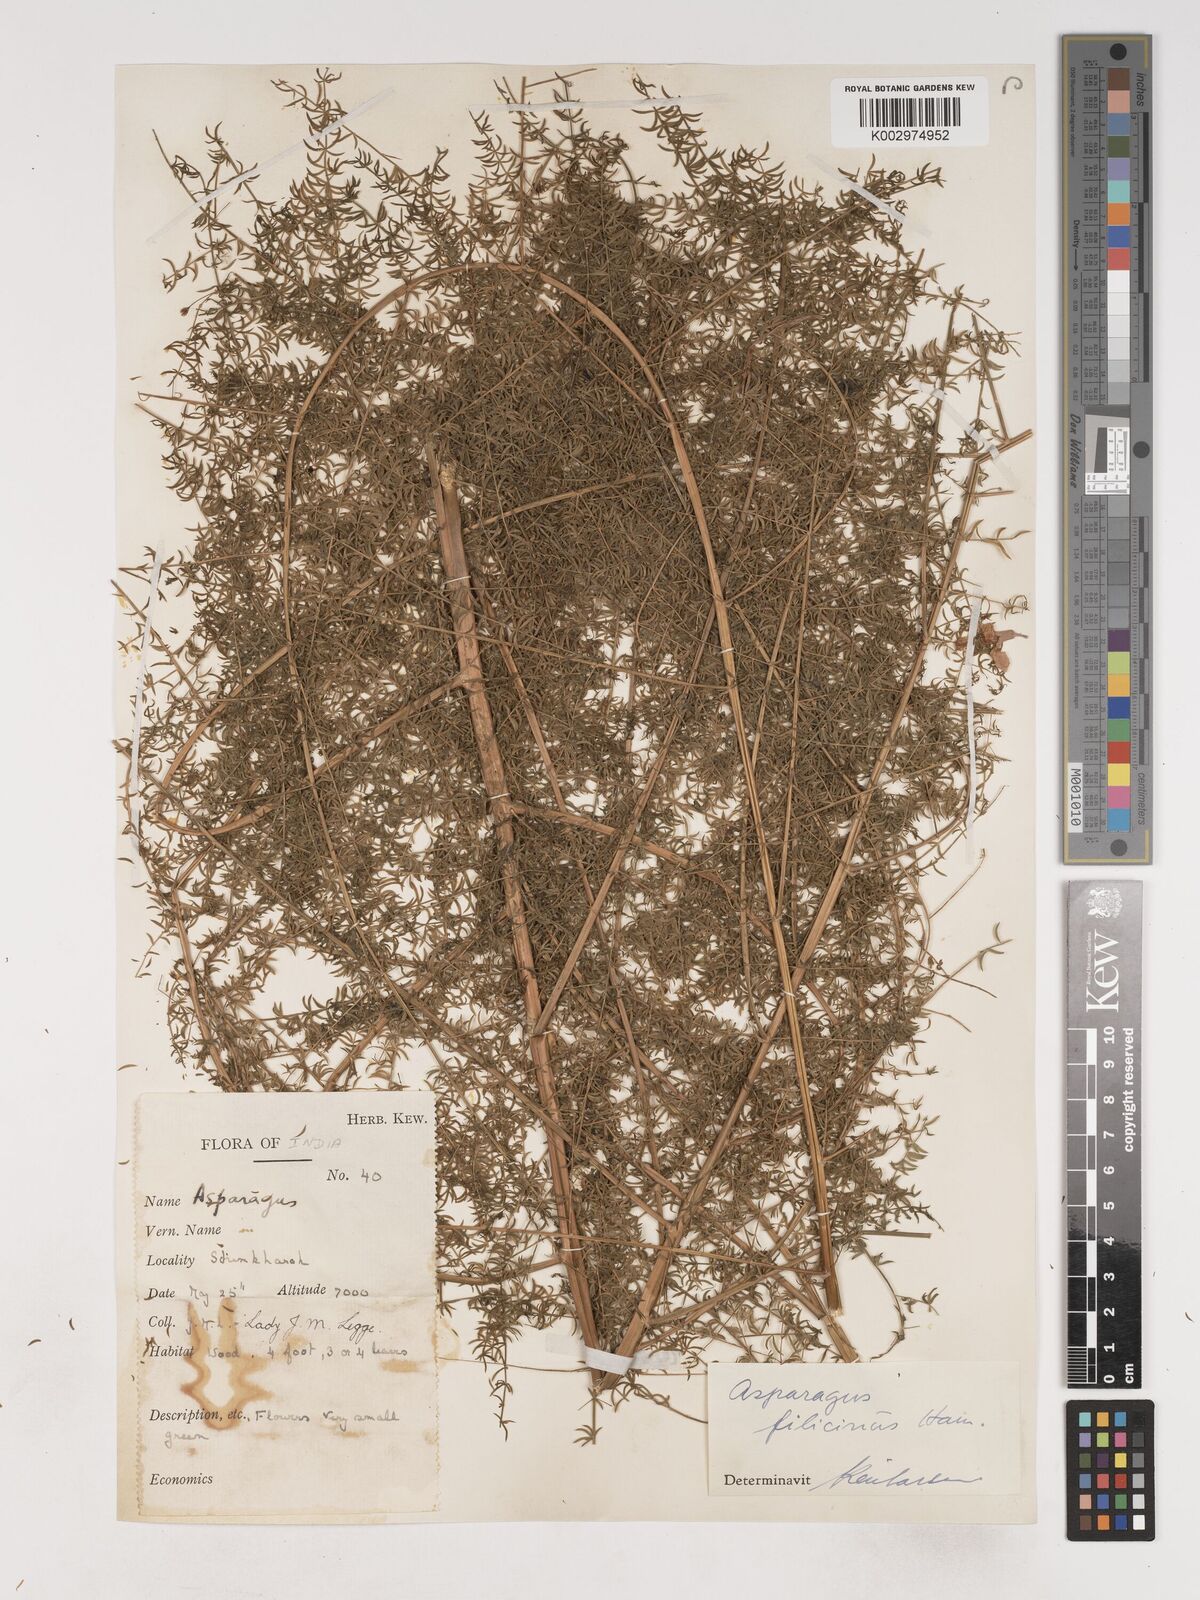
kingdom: Plantae
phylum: Tracheophyta
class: Liliopsida
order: Asparagales
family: Asparagaceae
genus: Asparagus
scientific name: Asparagus filicinus
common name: Fern asparagus
